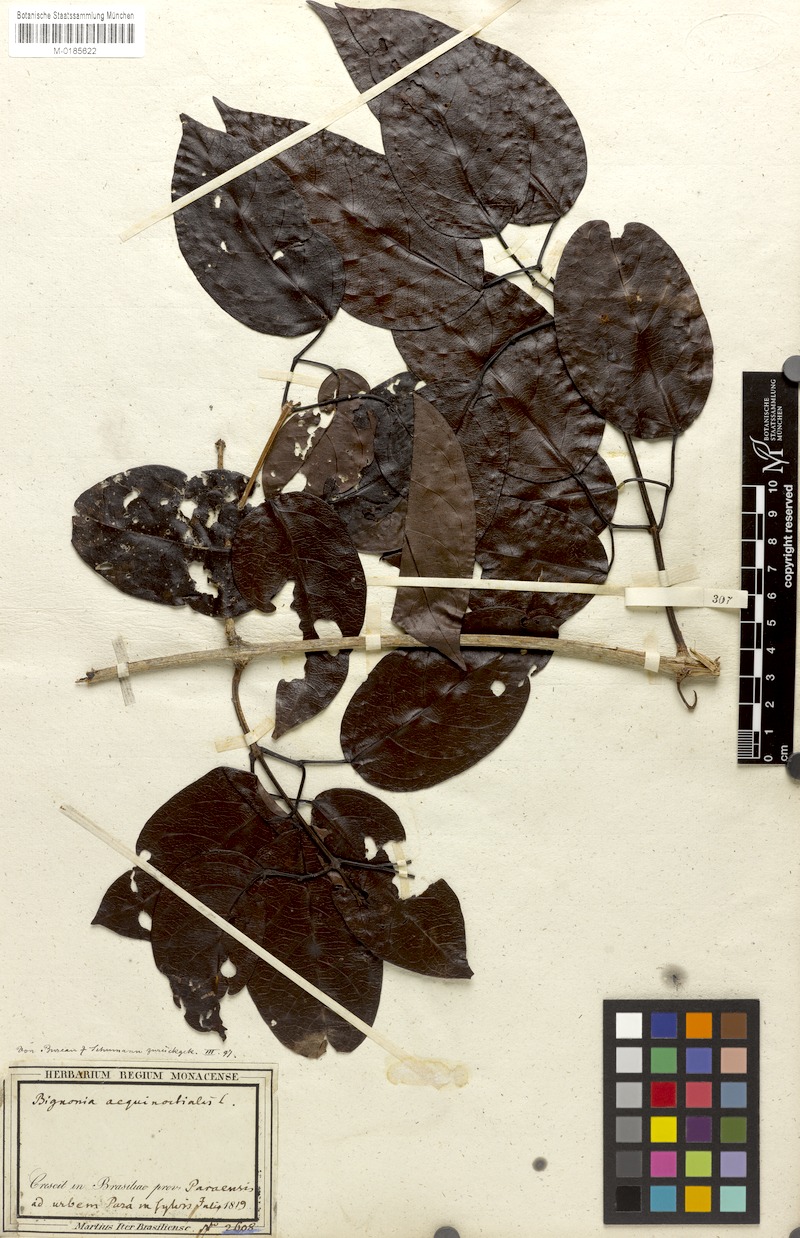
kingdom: Plantae
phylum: Tracheophyta
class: Magnoliopsida
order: Lamiales
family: Bignoniaceae
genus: Bignonia
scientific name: Bignonia aequinoctialis
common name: Garlicvine
